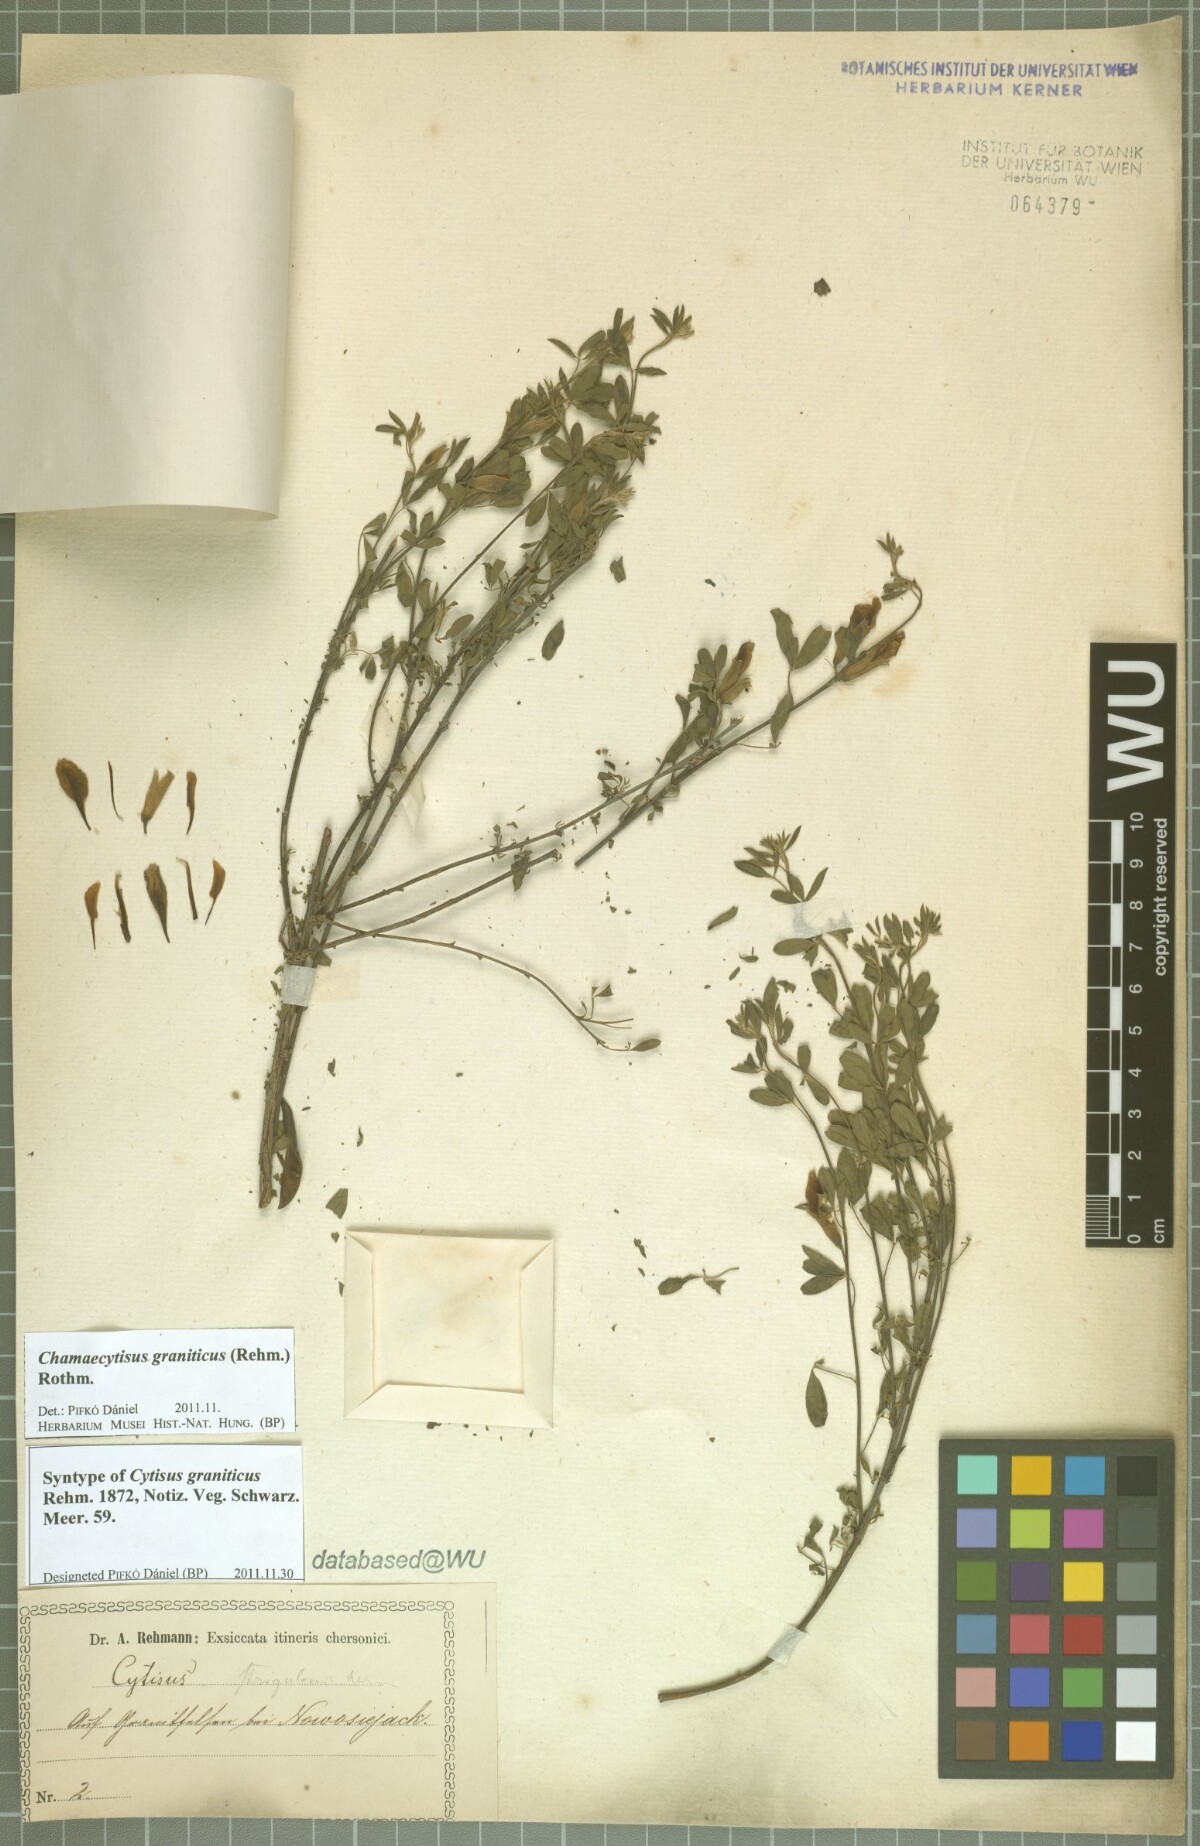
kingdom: Plantae
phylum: Tracheophyta
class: Magnoliopsida
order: Fabales
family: Fabaceae
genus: Chamaecytisus
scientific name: Chamaecytisus austriacus
